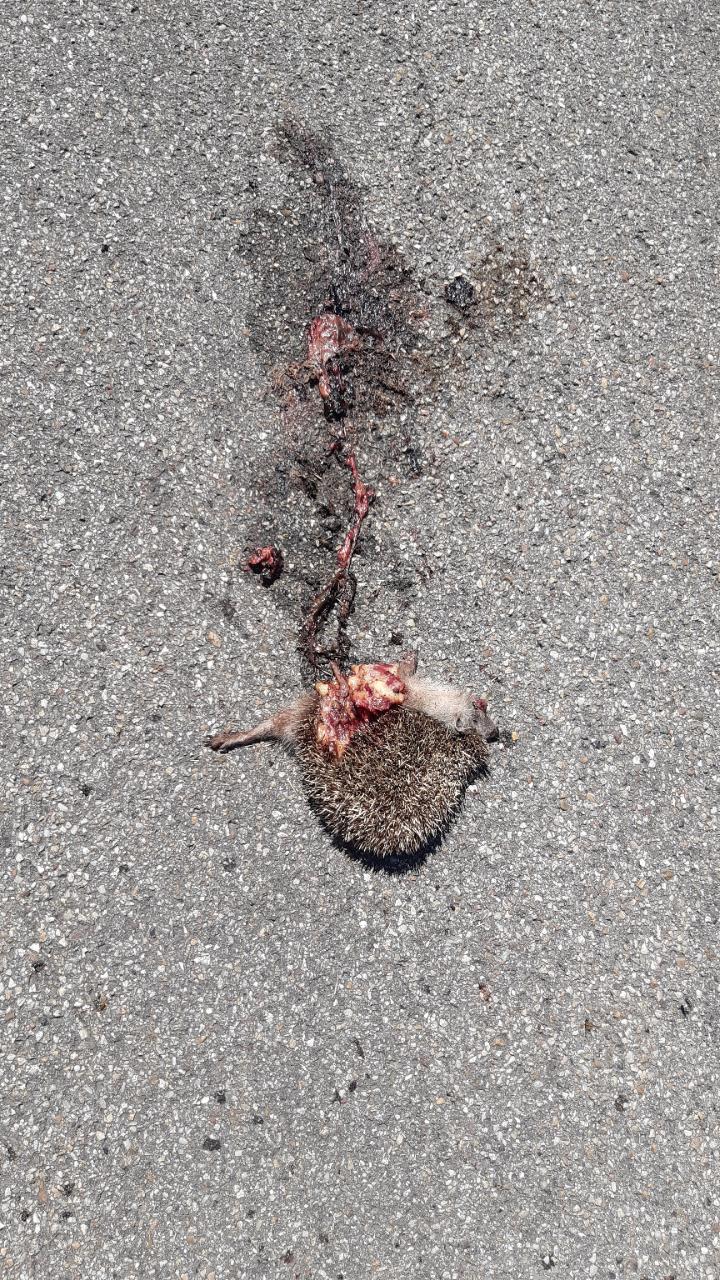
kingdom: Animalia
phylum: Chordata
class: Mammalia
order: Erinaceomorpha
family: Erinaceidae
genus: Erinaceus
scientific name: Erinaceus
